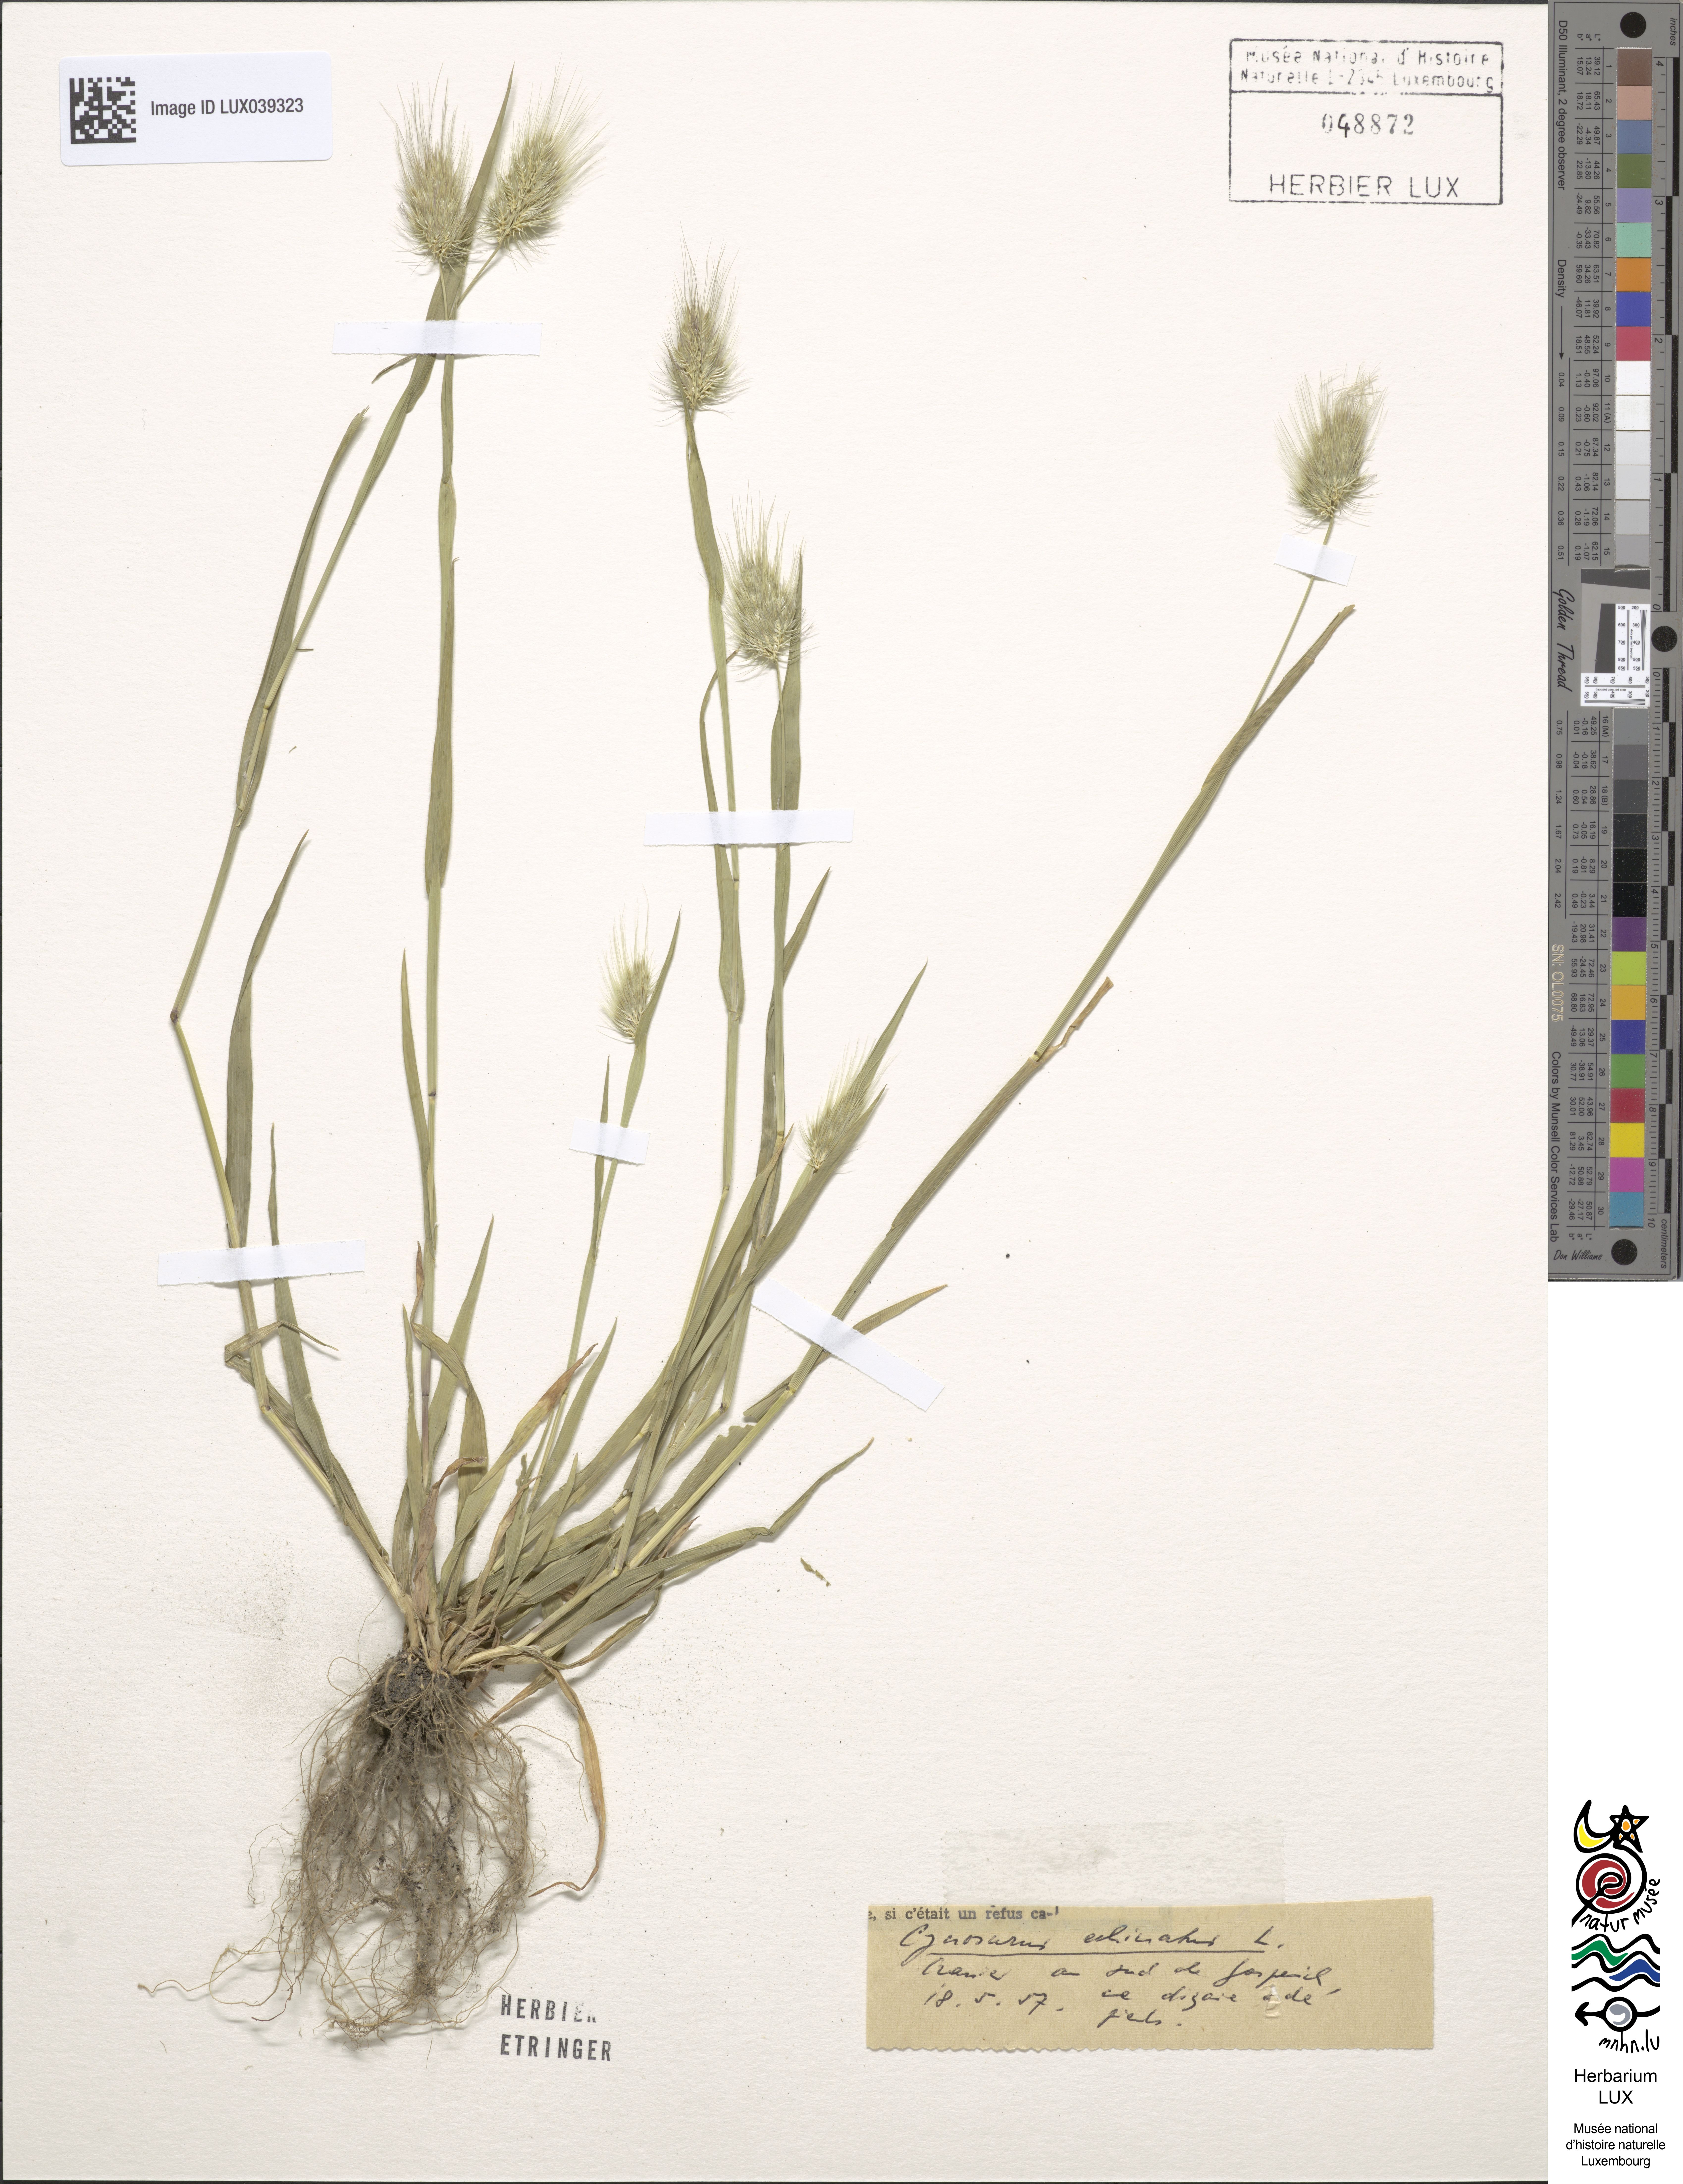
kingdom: Plantae
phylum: Tracheophyta
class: Liliopsida
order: Poales
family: Poaceae
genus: Cynosurus
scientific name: Cynosurus echinatus
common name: Rough dog's-tail
